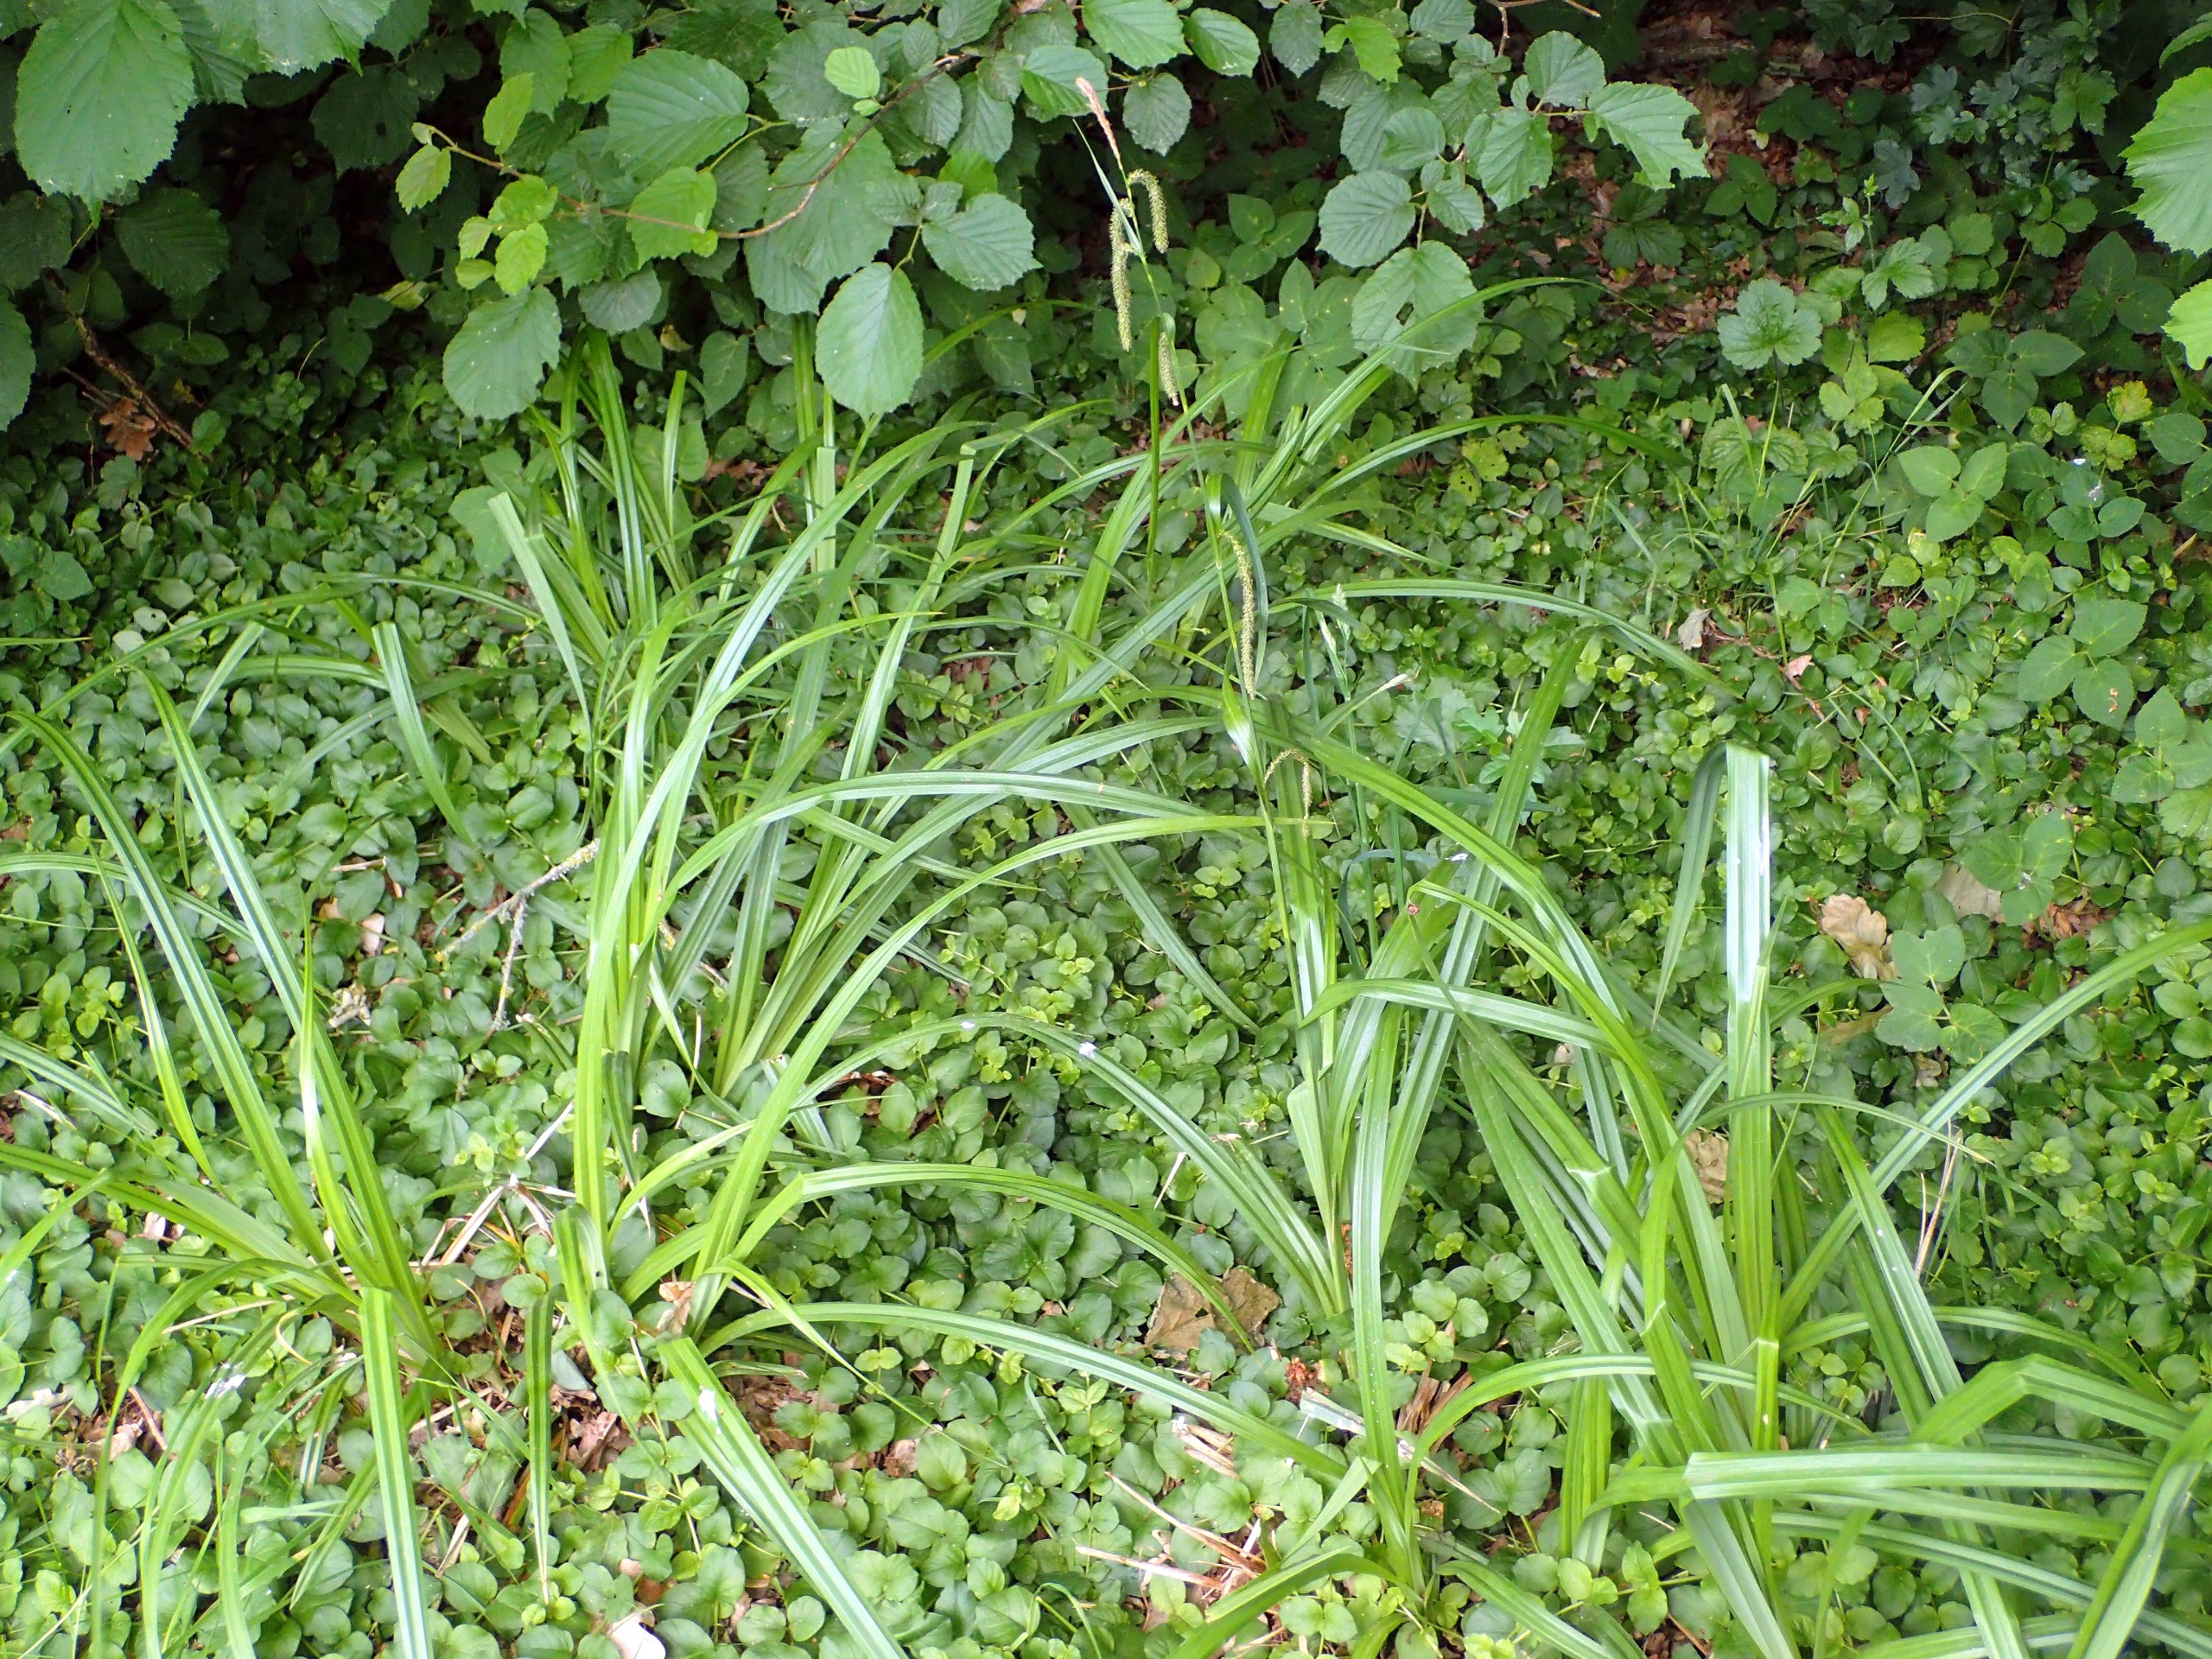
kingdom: Plantae
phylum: Tracheophyta
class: Liliopsida
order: Poales
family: Cyperaceae
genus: Carex
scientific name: Carex pendula
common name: Kæmpe-star
